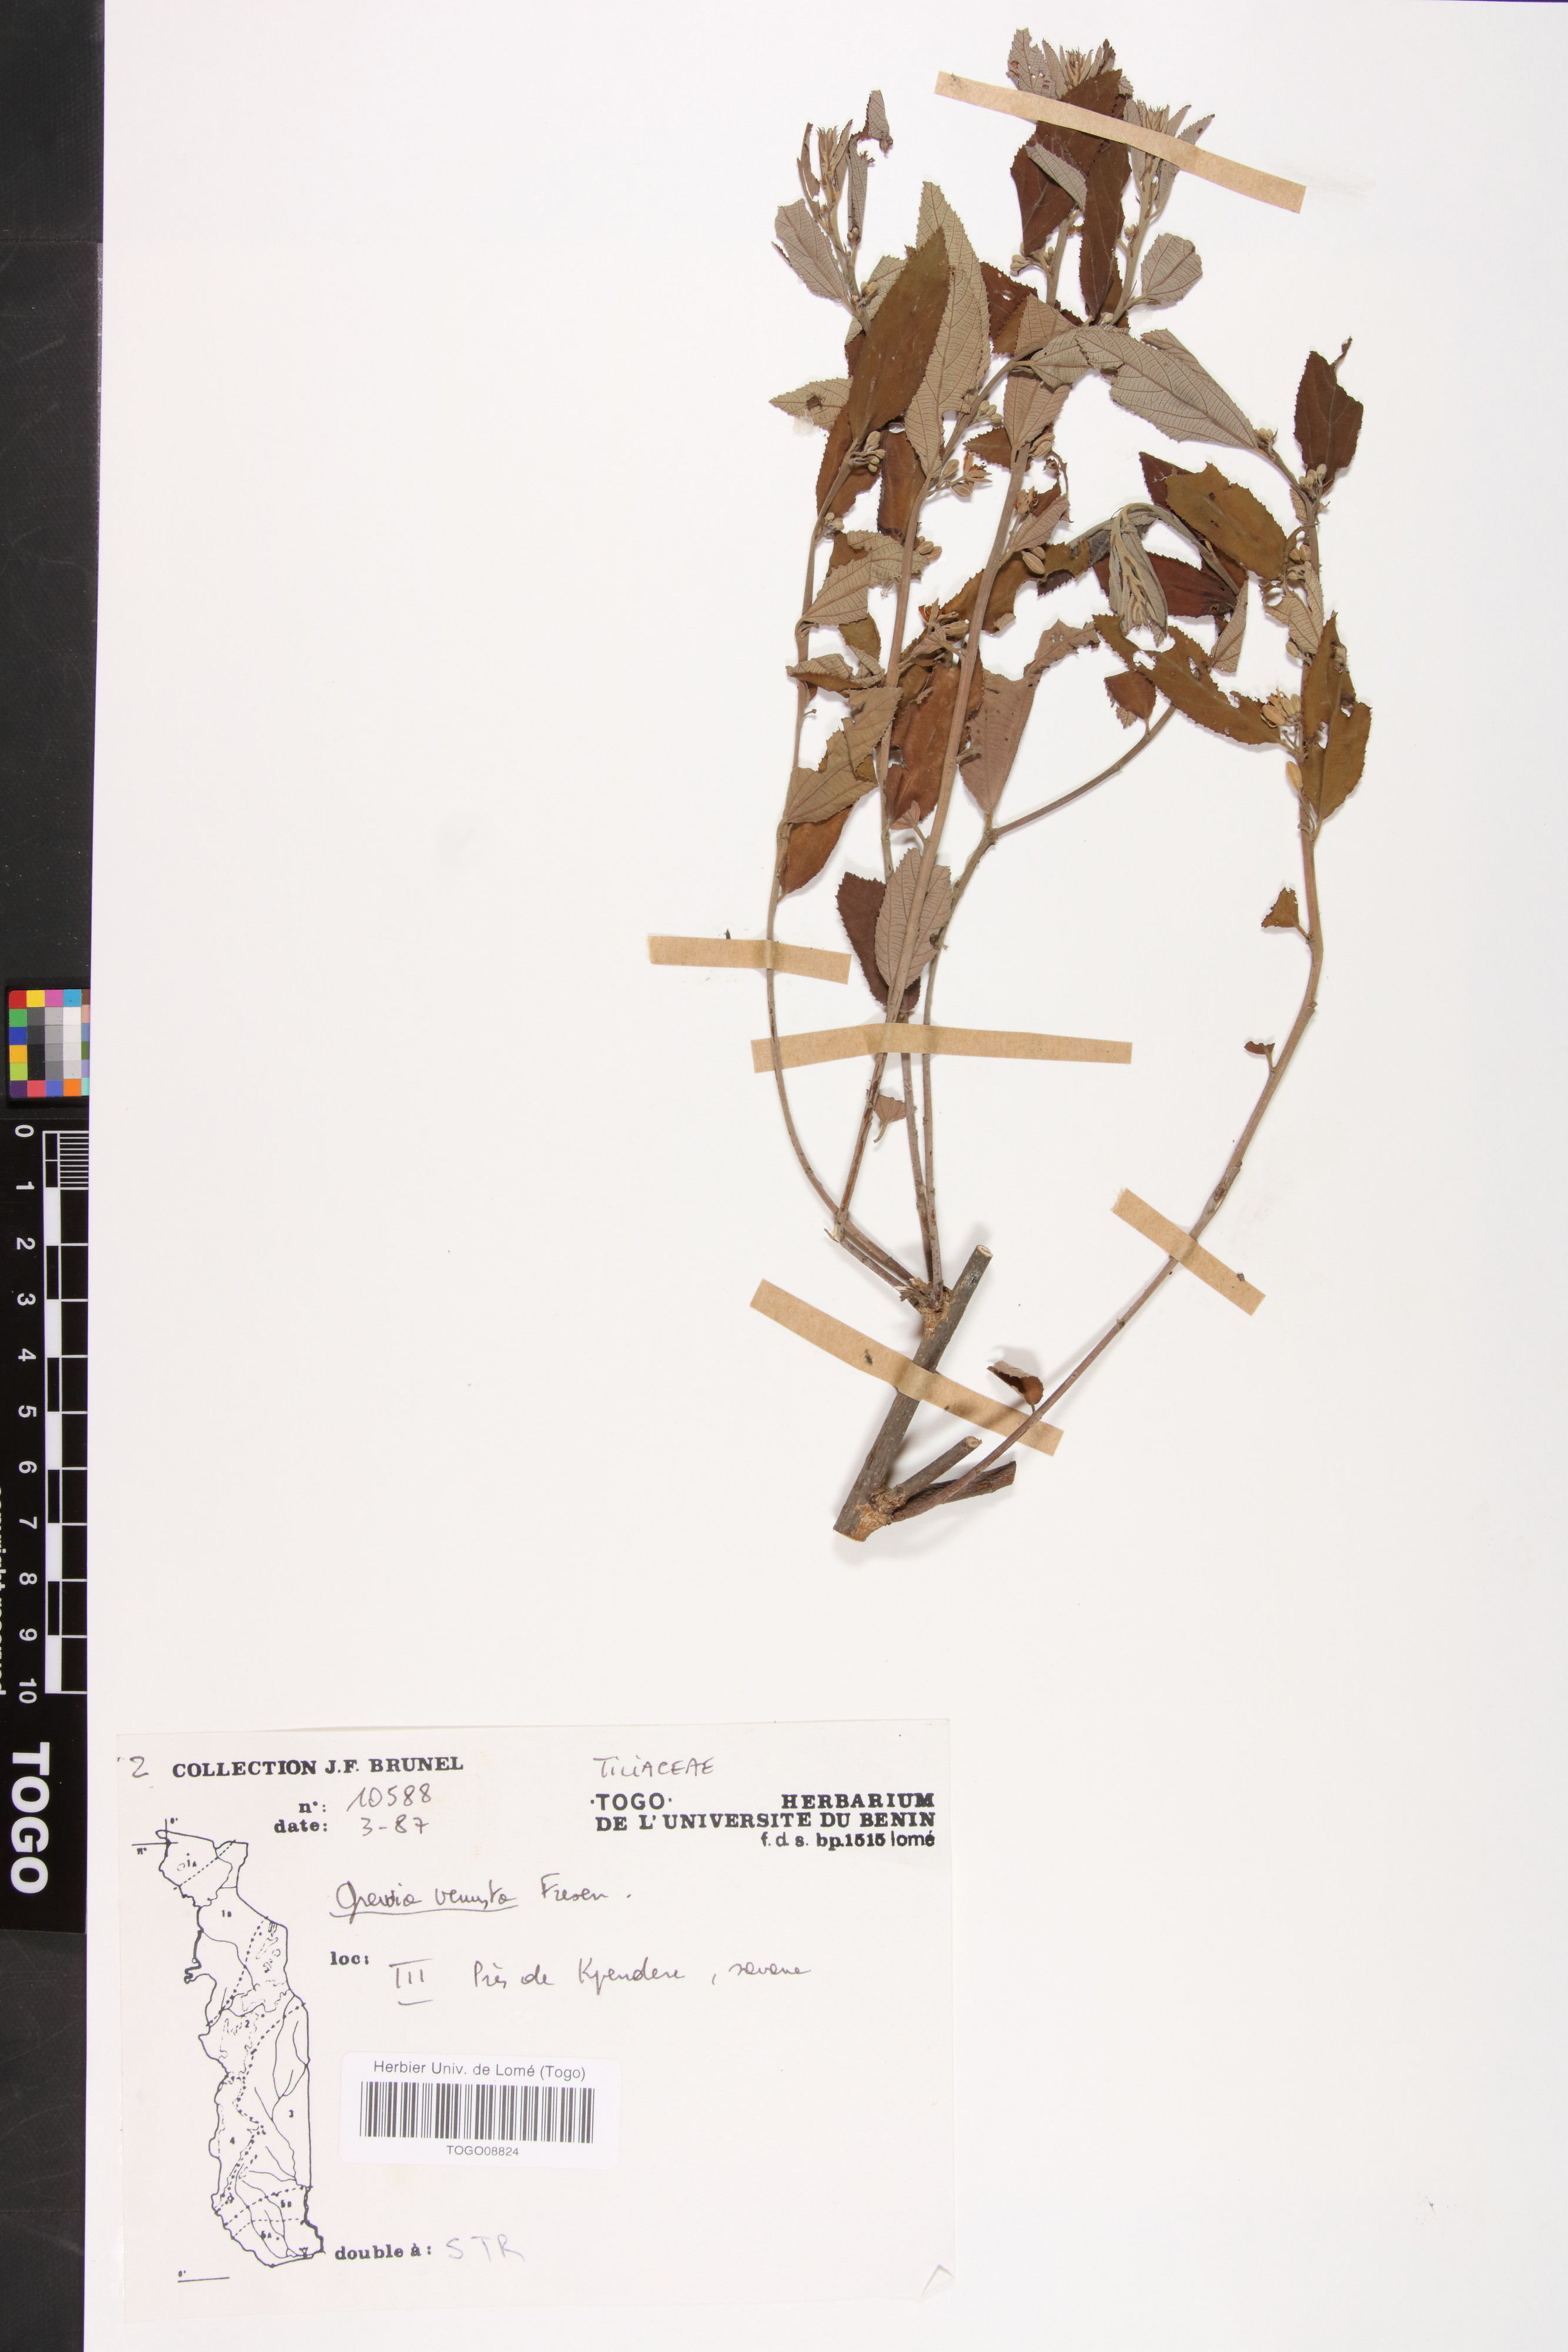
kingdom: Plantae
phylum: Tracheophyta
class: Magnoliopsida
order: Malvales
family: Malvaceae
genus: Grewia
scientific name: Grewia mollis
